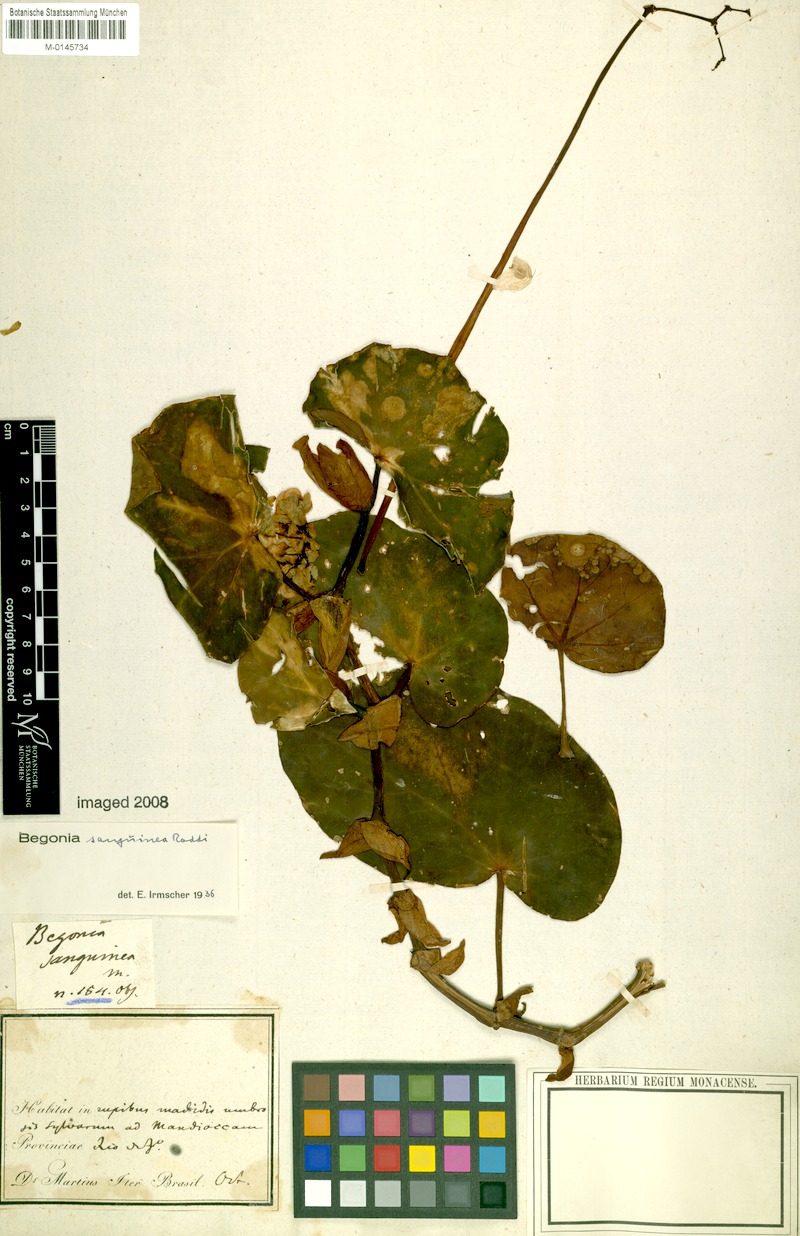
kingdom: Plantae
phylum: Tracheophyta
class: Magnoliopsida
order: Cucurbitales
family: Begoniaceae
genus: Begonia
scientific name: Begonia sanguinea
